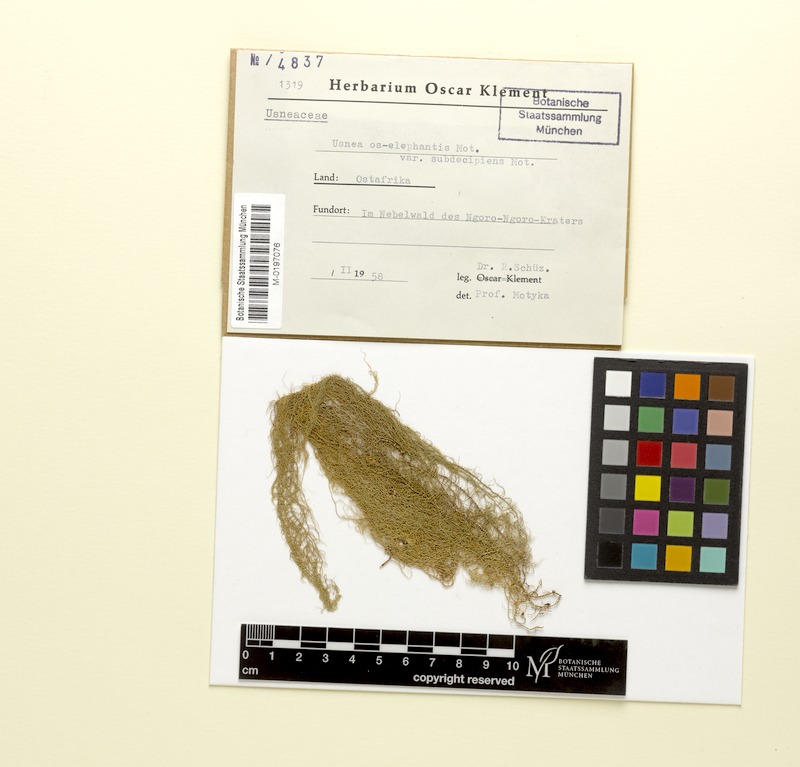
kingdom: Fungi
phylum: Ascomycota
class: Lecanoromycetes
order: Lecanorales
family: Parmeliaceae
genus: Usnea
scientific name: Usnea os-elephantis
